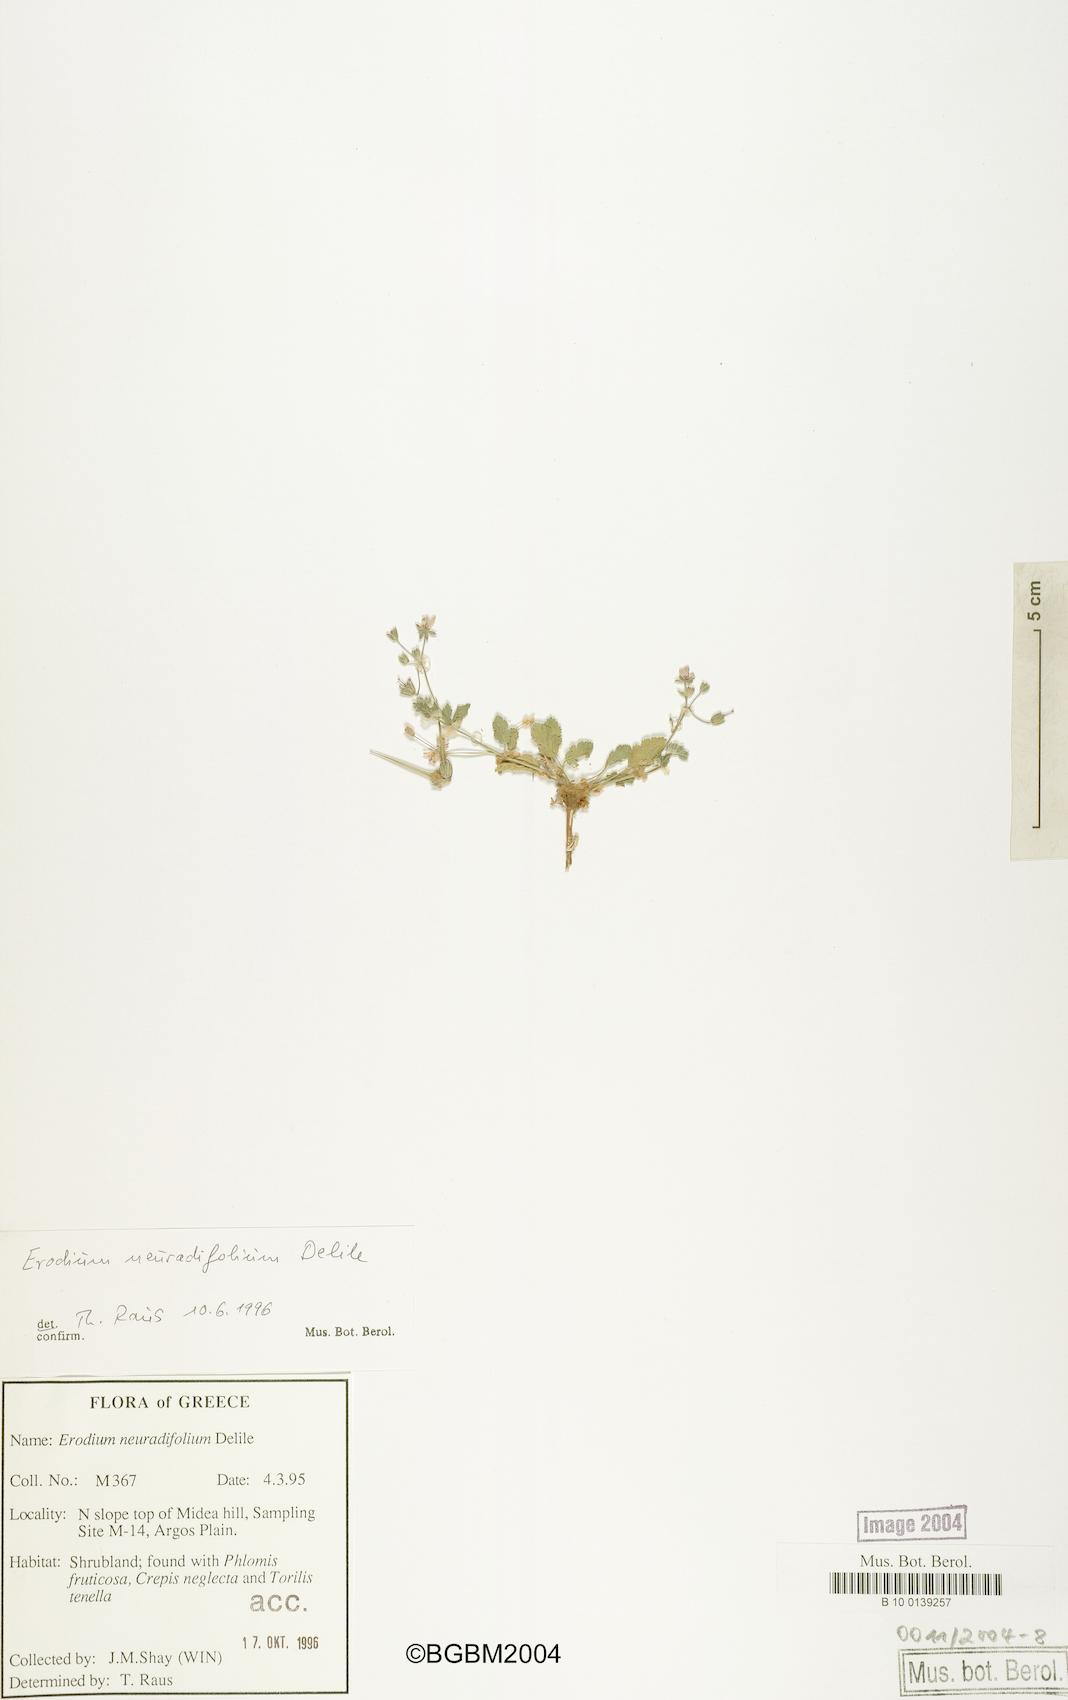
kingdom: Plantae
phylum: Tracheophyta
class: Magnoliopsida
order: Geraniales
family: Geraniaceae
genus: Erodium
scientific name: Erodium malacoides
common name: Soft stork's-bill
